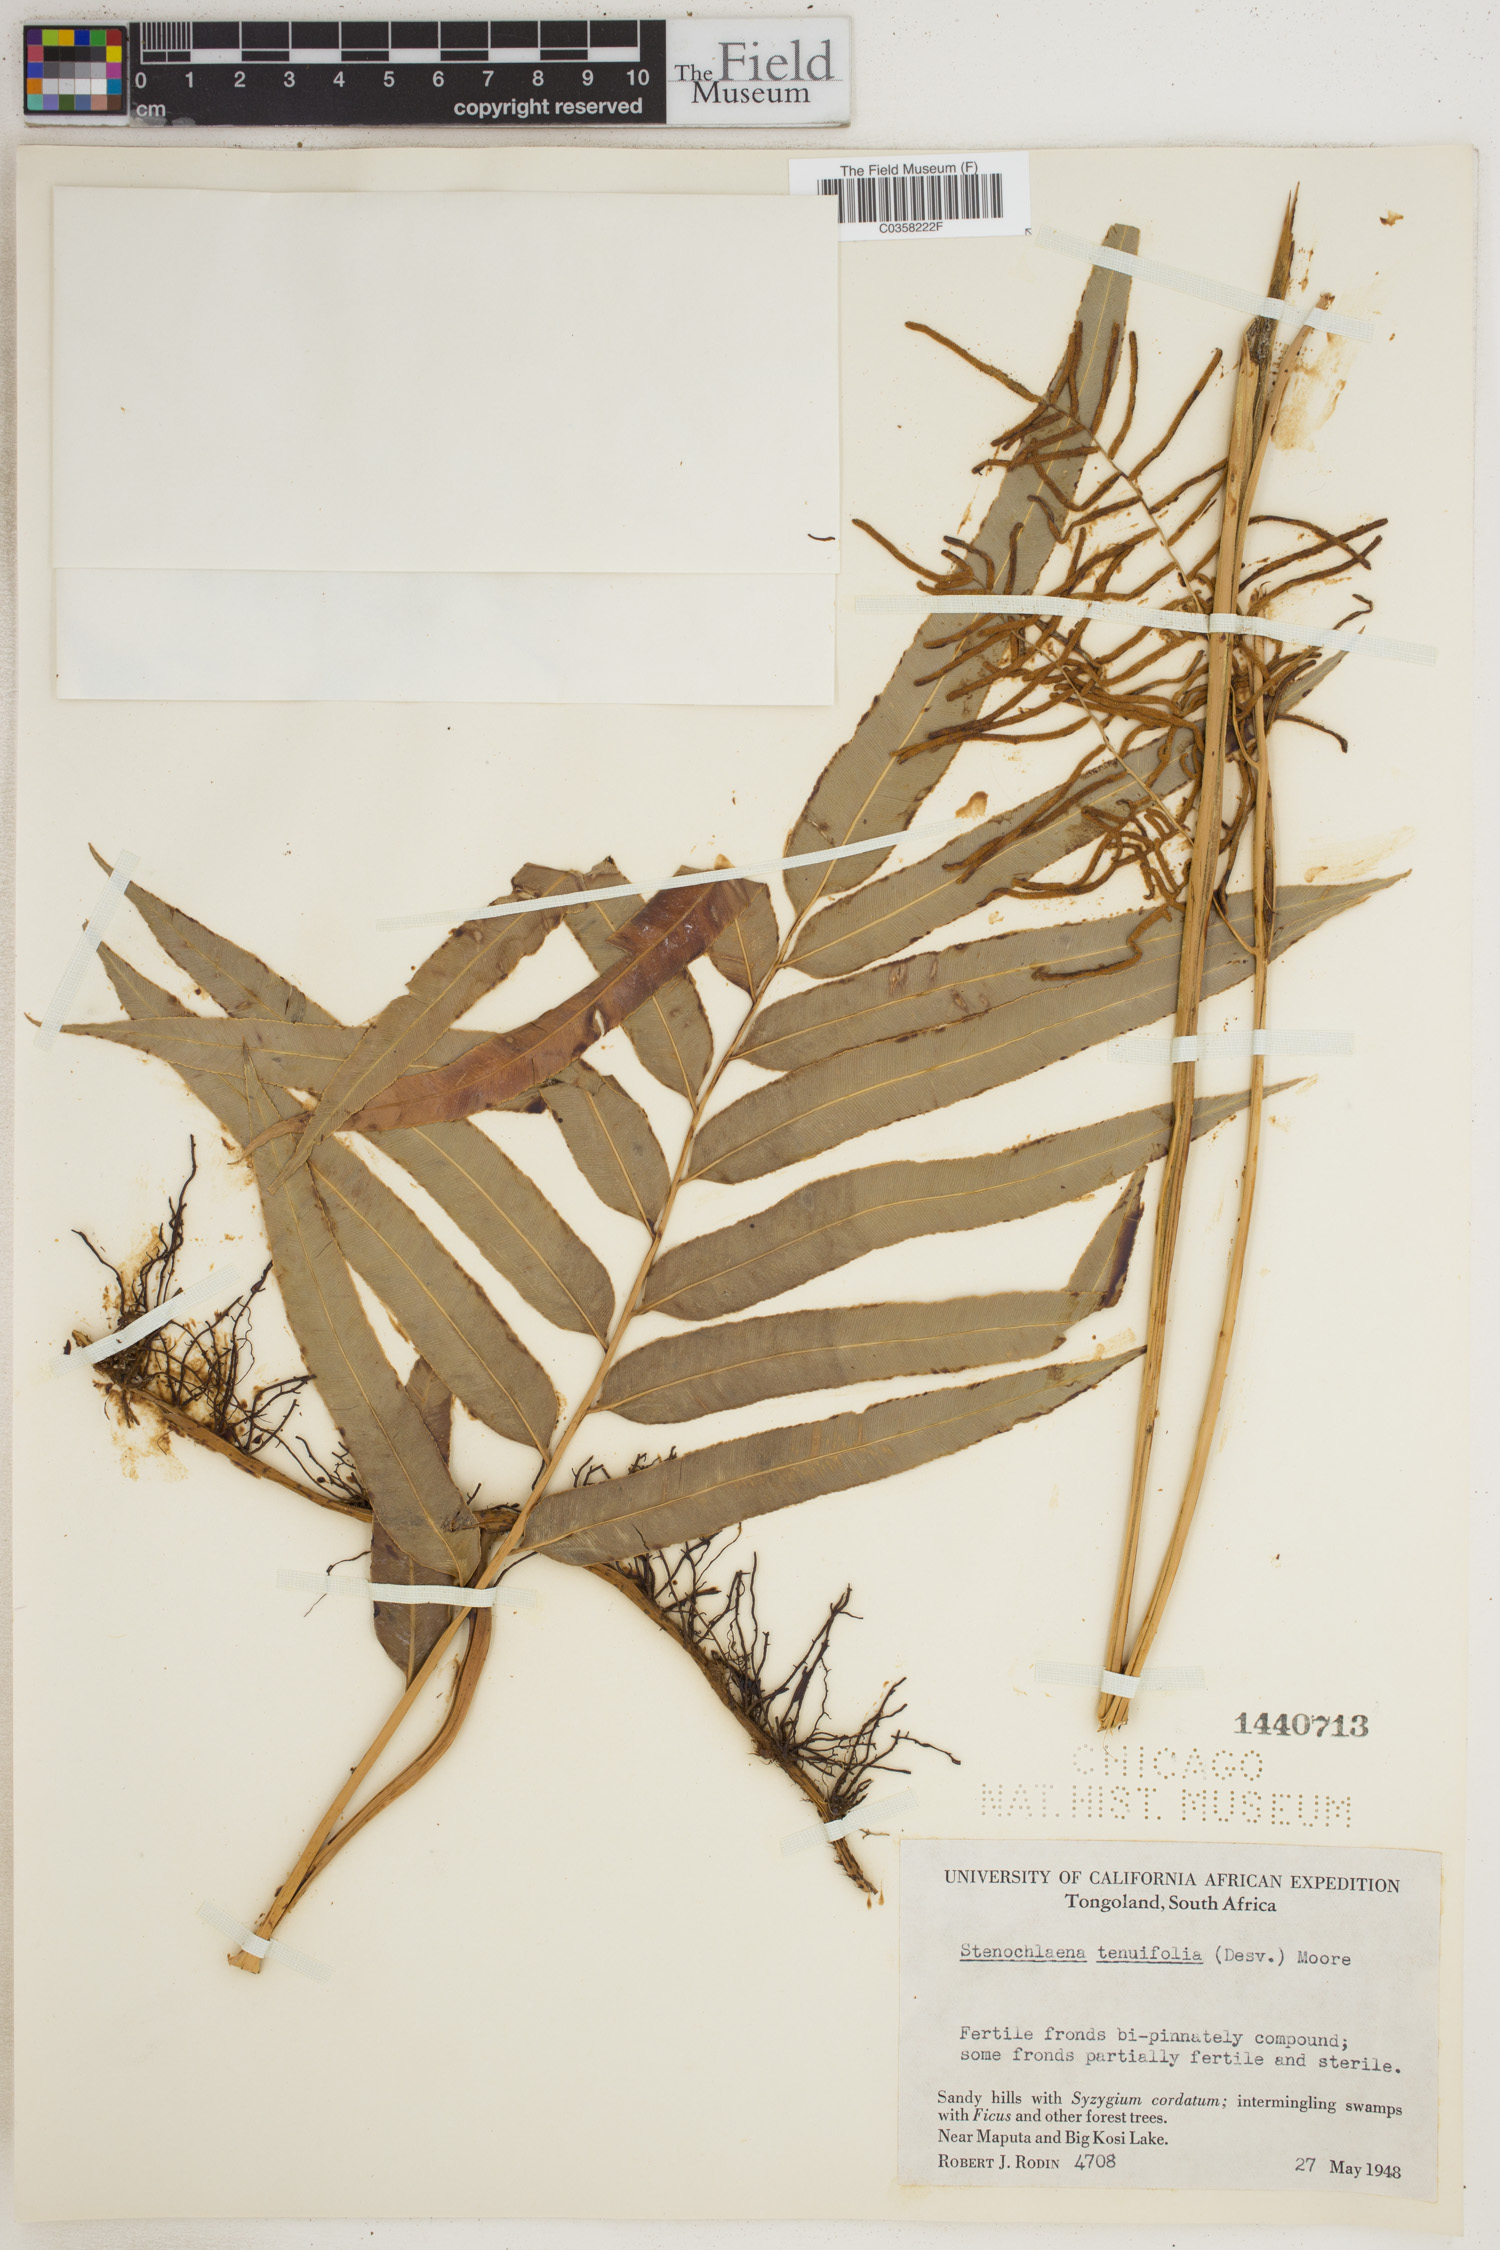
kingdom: Plantae
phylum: Tracheophyta
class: Polypodiopsida
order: Polypodiales
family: Blechnaceae
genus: Stenochlaena
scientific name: Stenochlaena tenuifolia
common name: Giant vine fern
